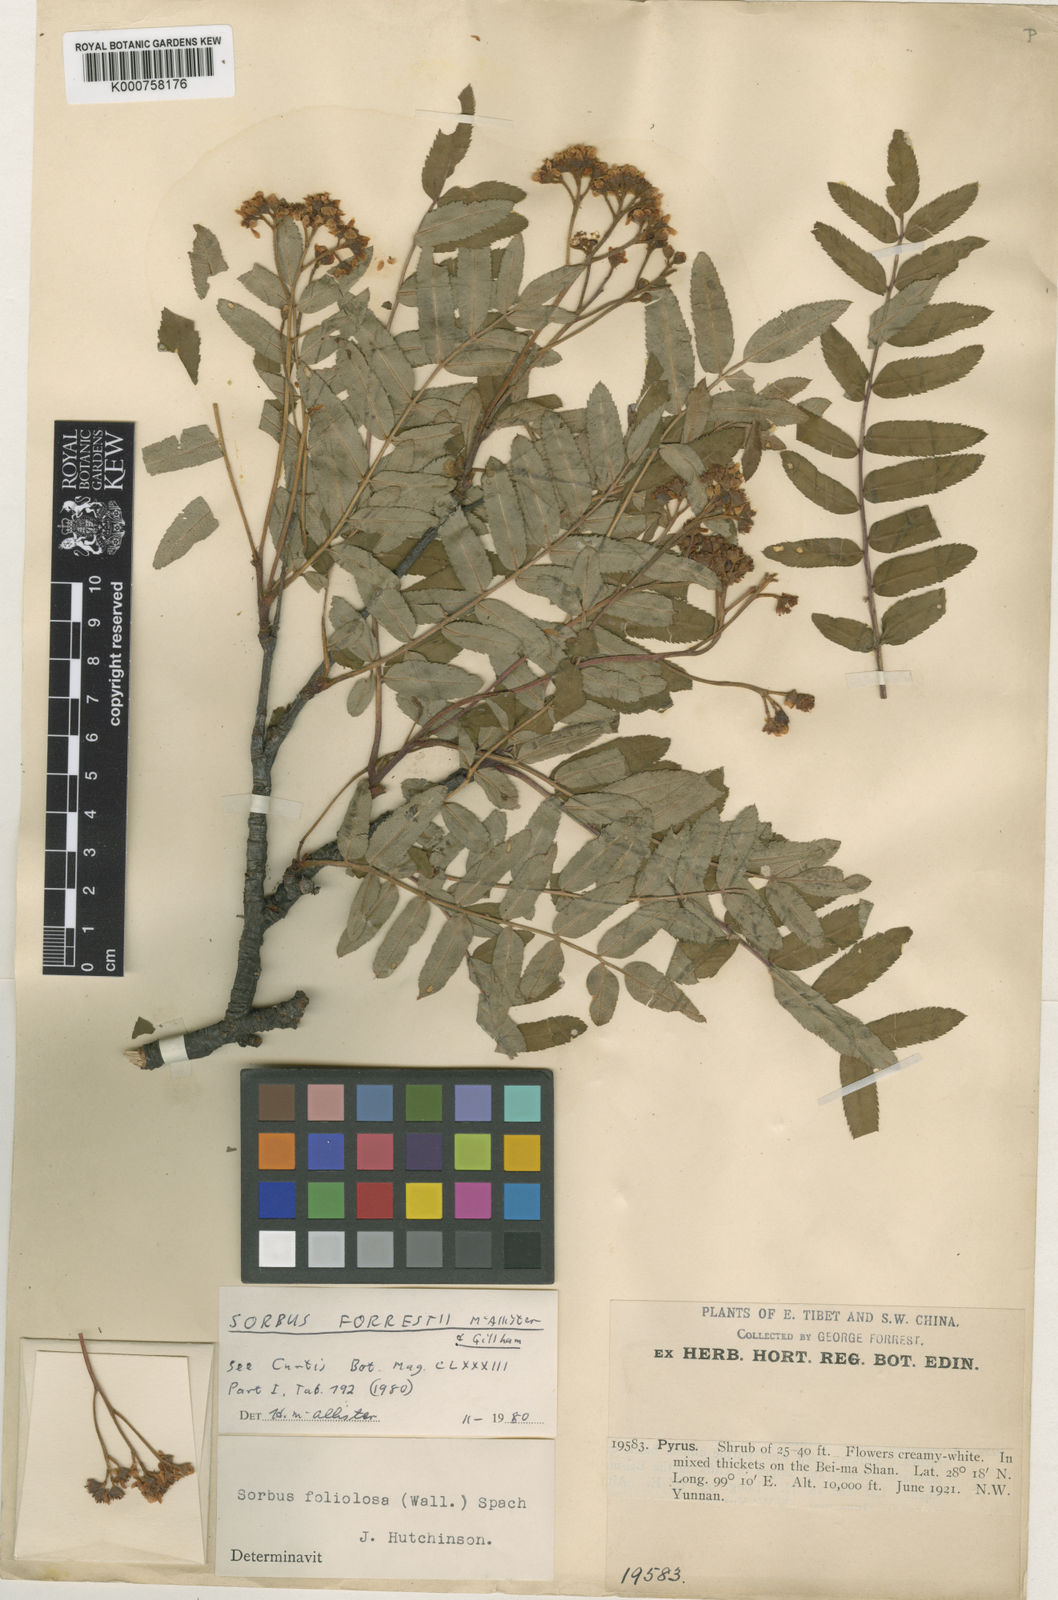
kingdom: Plantae
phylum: Tracheophyta
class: Magnoliopsida
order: Rosales
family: Rosaceae
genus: Sorbus
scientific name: Sorbus forrestii
